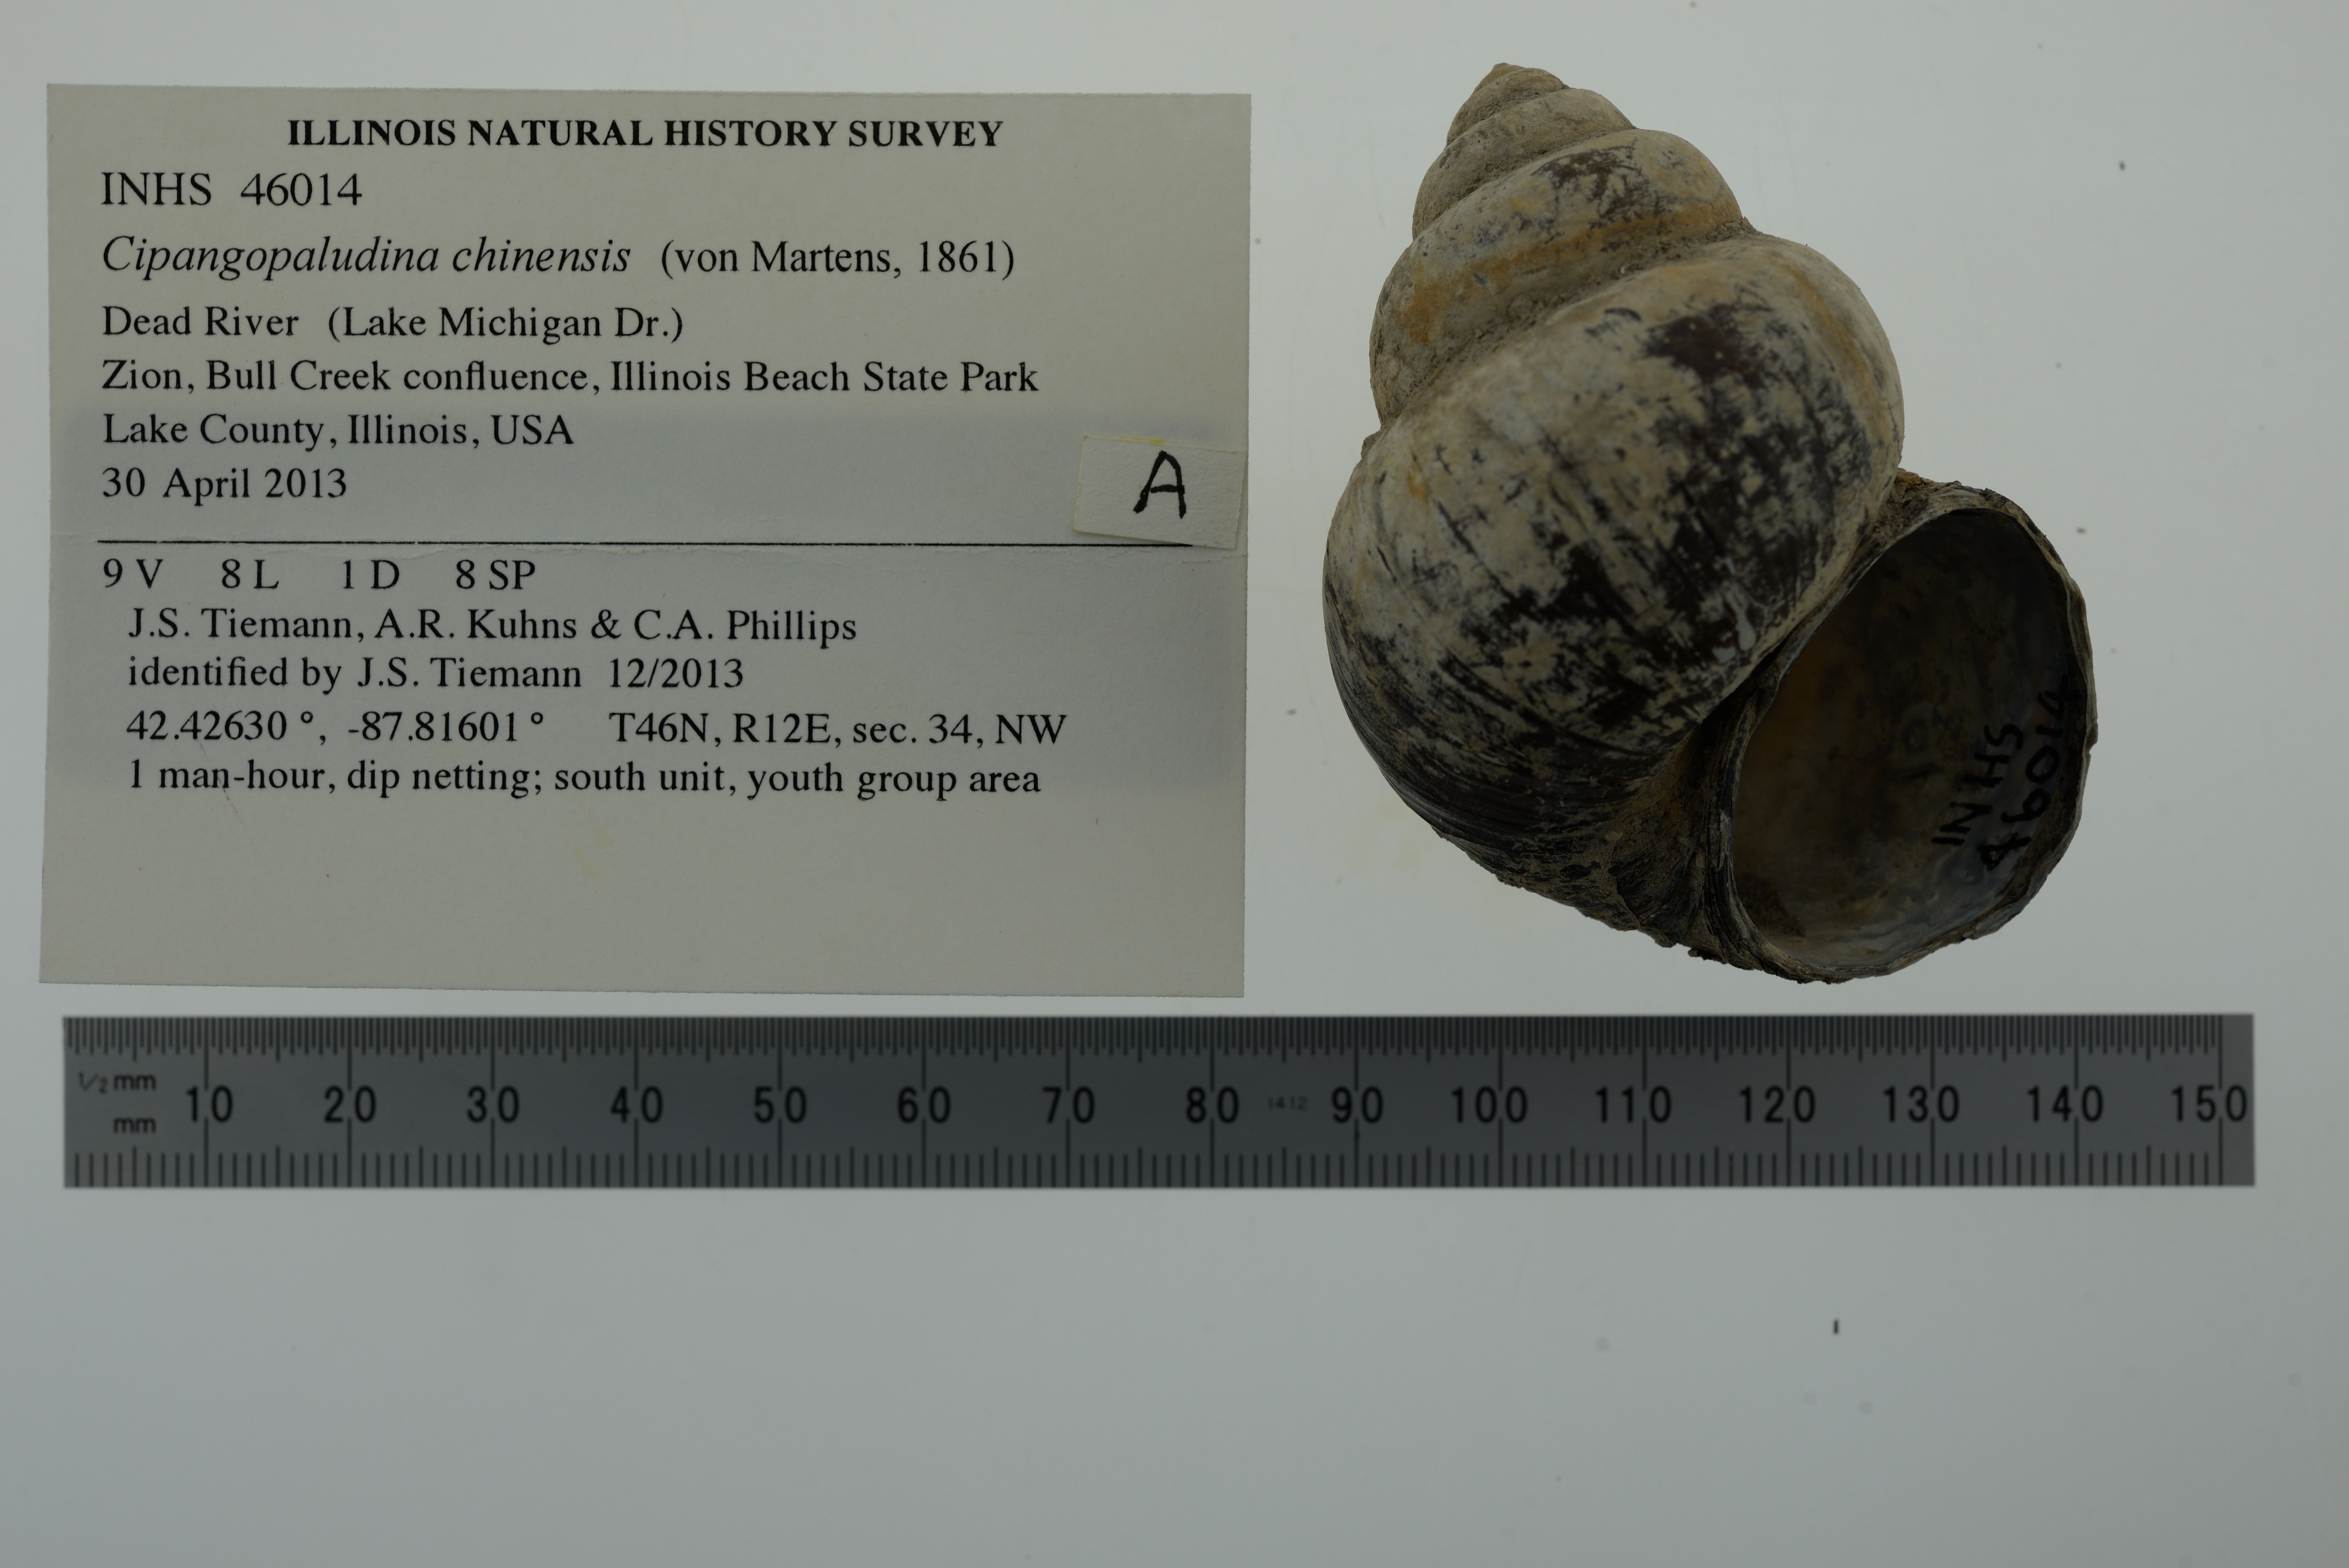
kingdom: Animalia
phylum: Mollusca
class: Gastropoda
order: Architaenioglossa
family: Viviparidae
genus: Cipangopaludina
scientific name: Cipangopaludina chinensis
